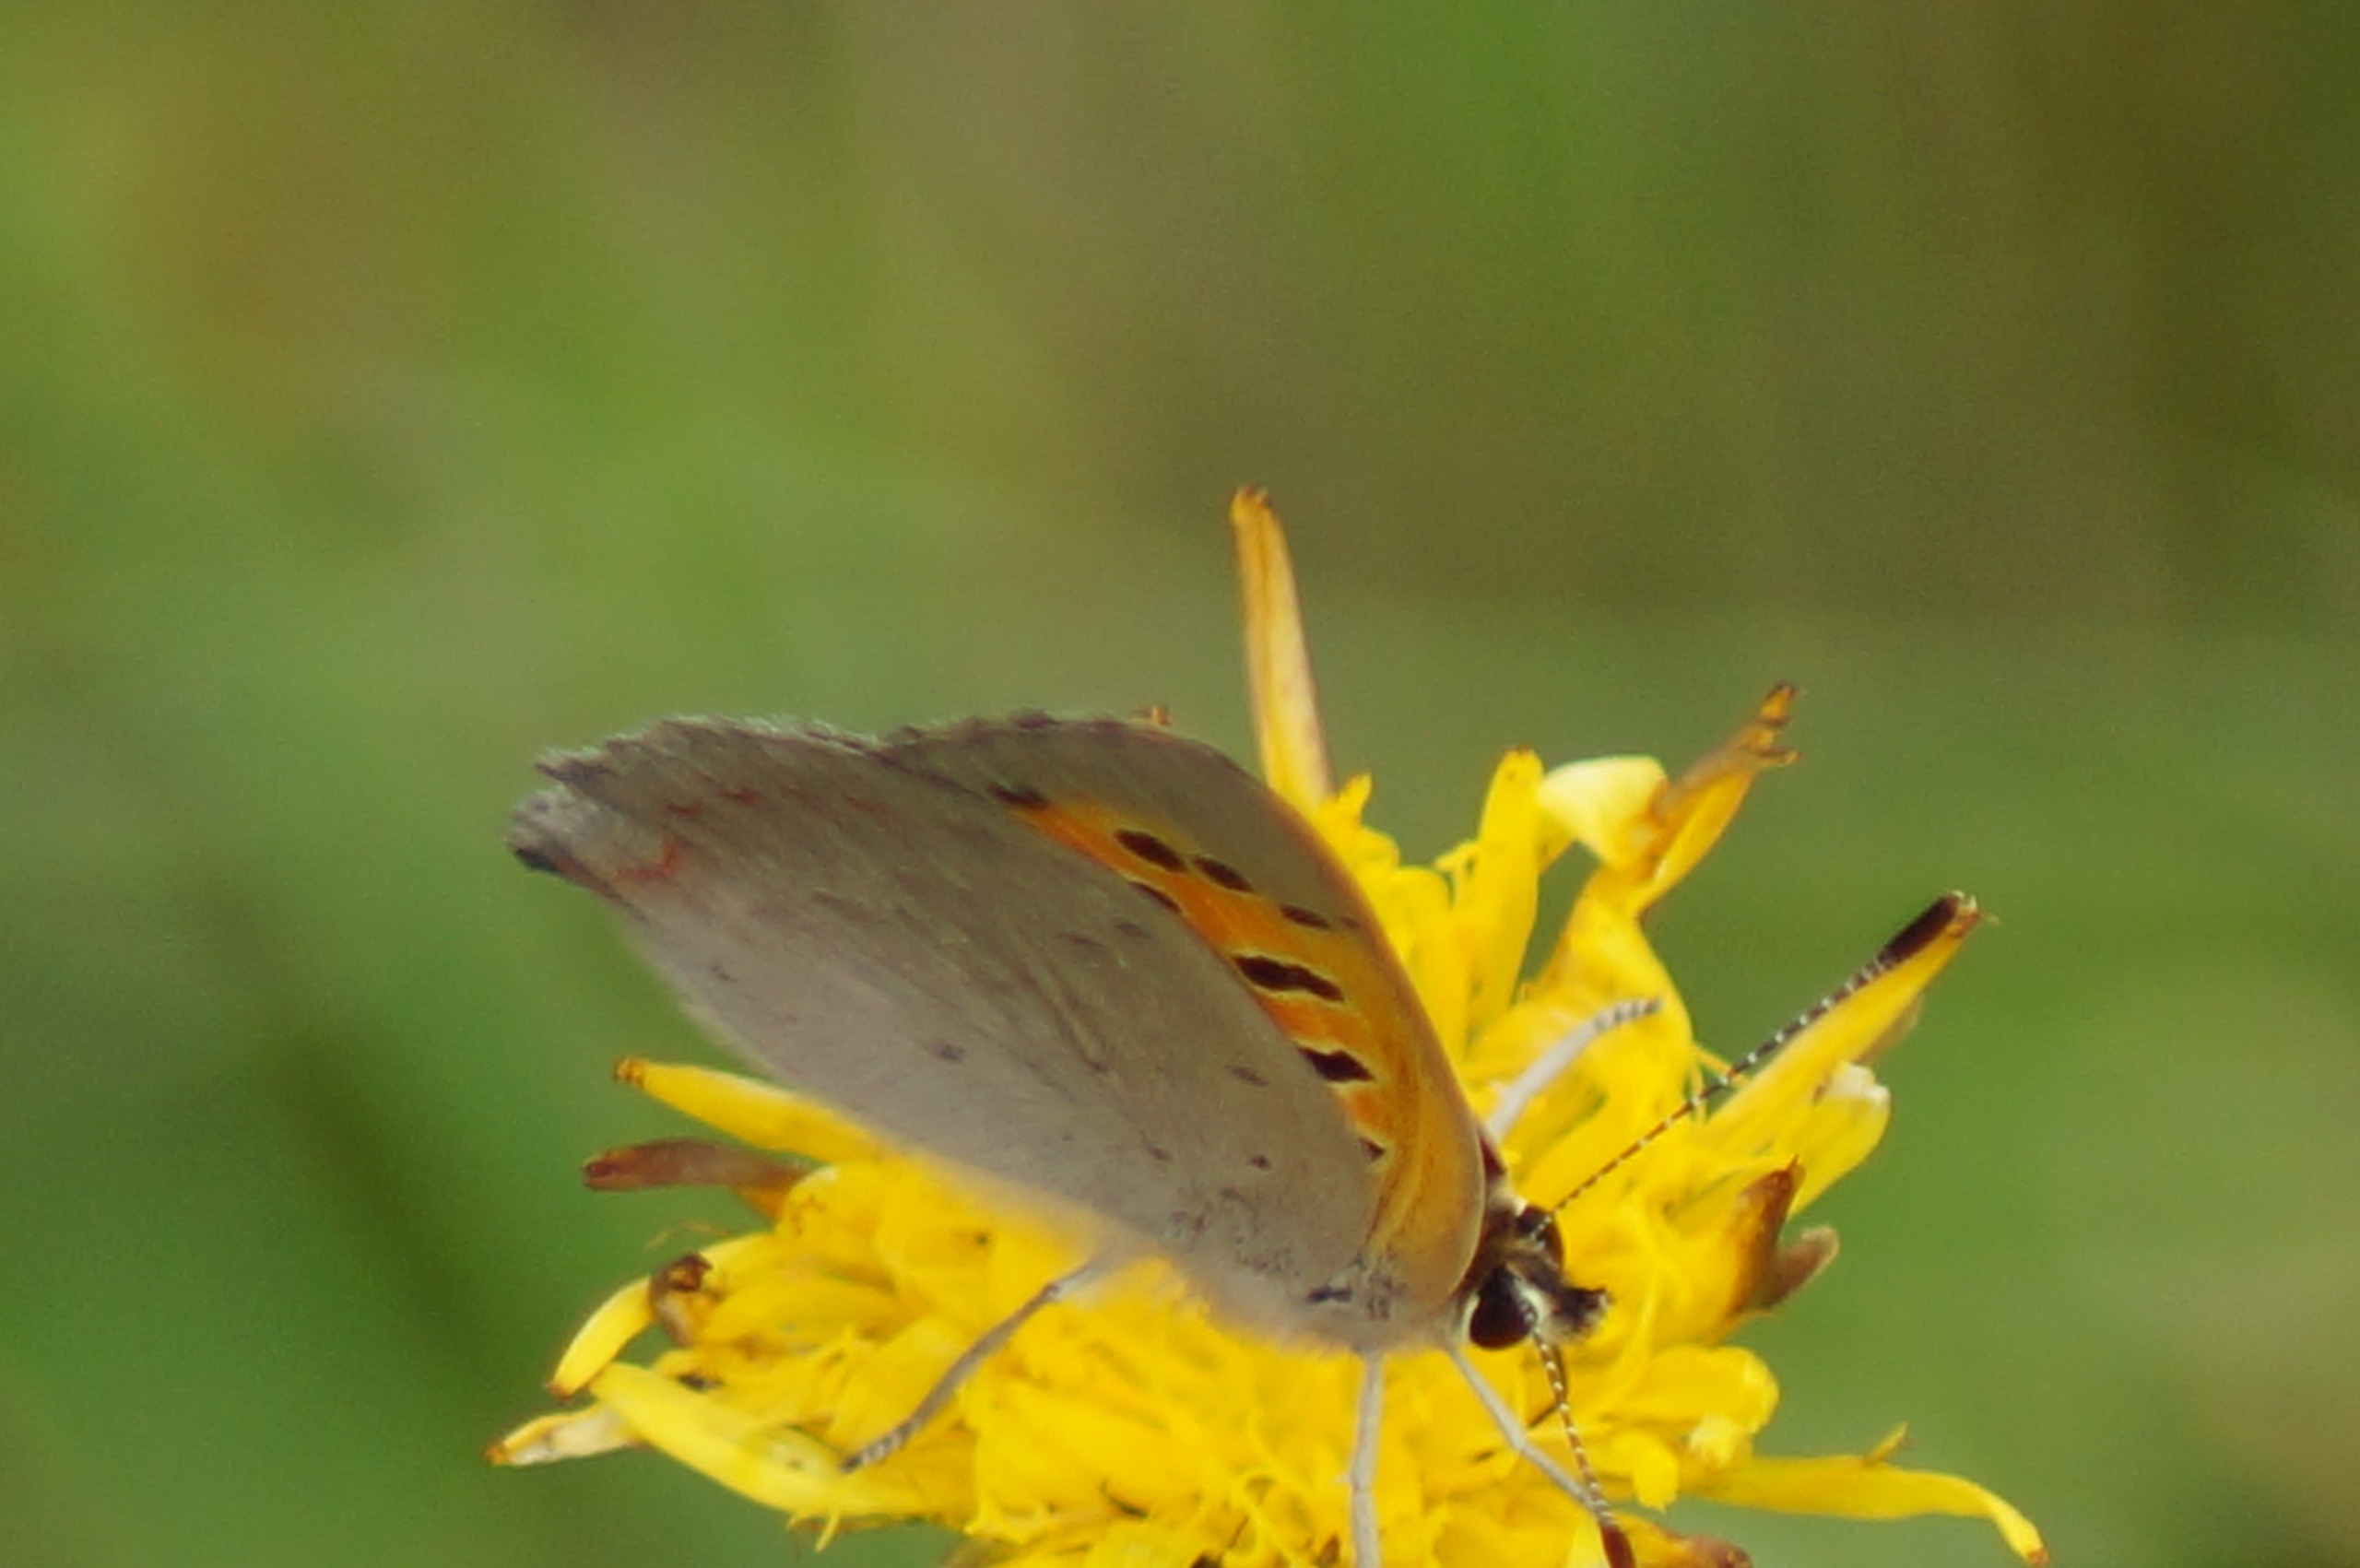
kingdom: Animalia
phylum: Arthropoda
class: Insecta
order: Lepidoptera
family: Lycaenidae
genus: Lycaena
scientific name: Lycaena phlaeas
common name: Lille ildfugl
